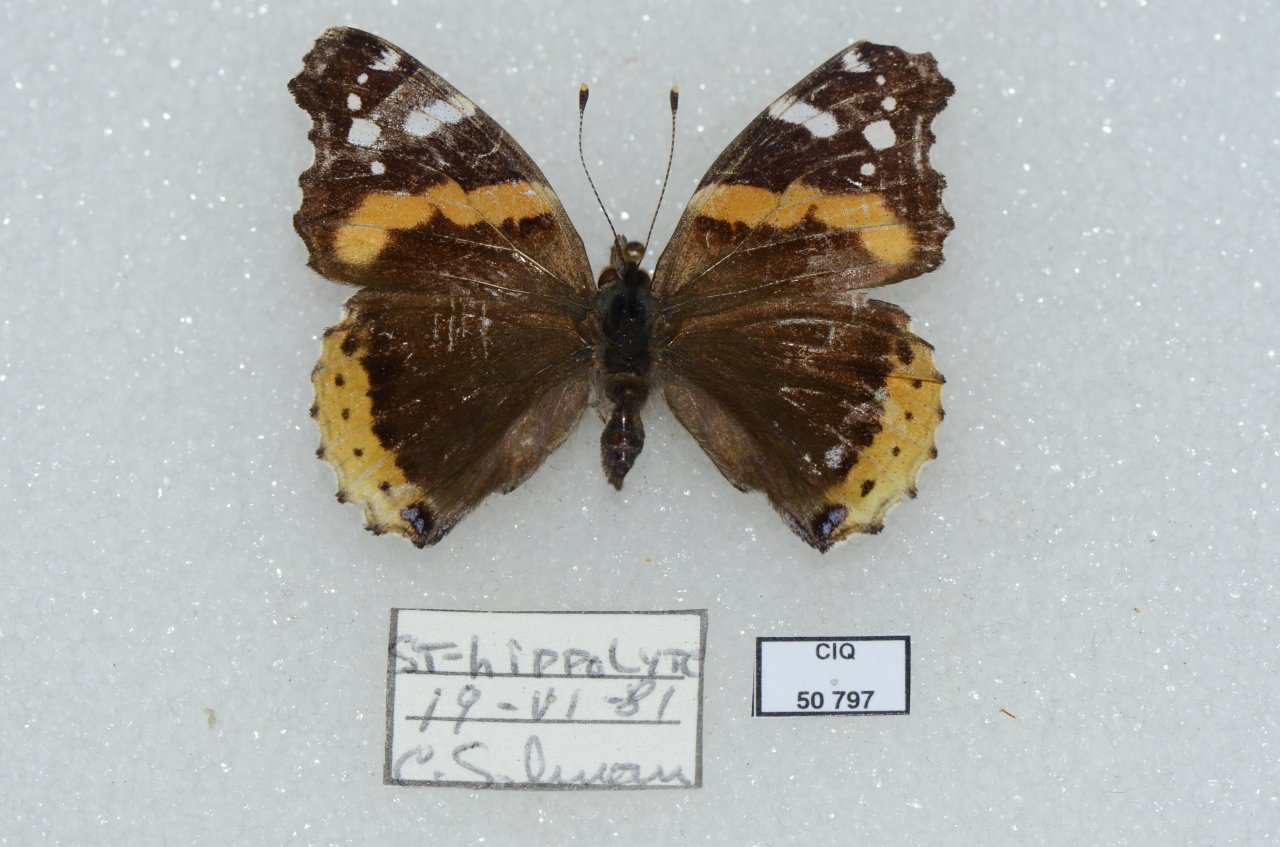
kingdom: Animalia
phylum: Arthropoda
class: Insecta
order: Lepidoptera
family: Nymphalidae
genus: Vanessa
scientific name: Vanessa atalanta
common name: Red Admiral
